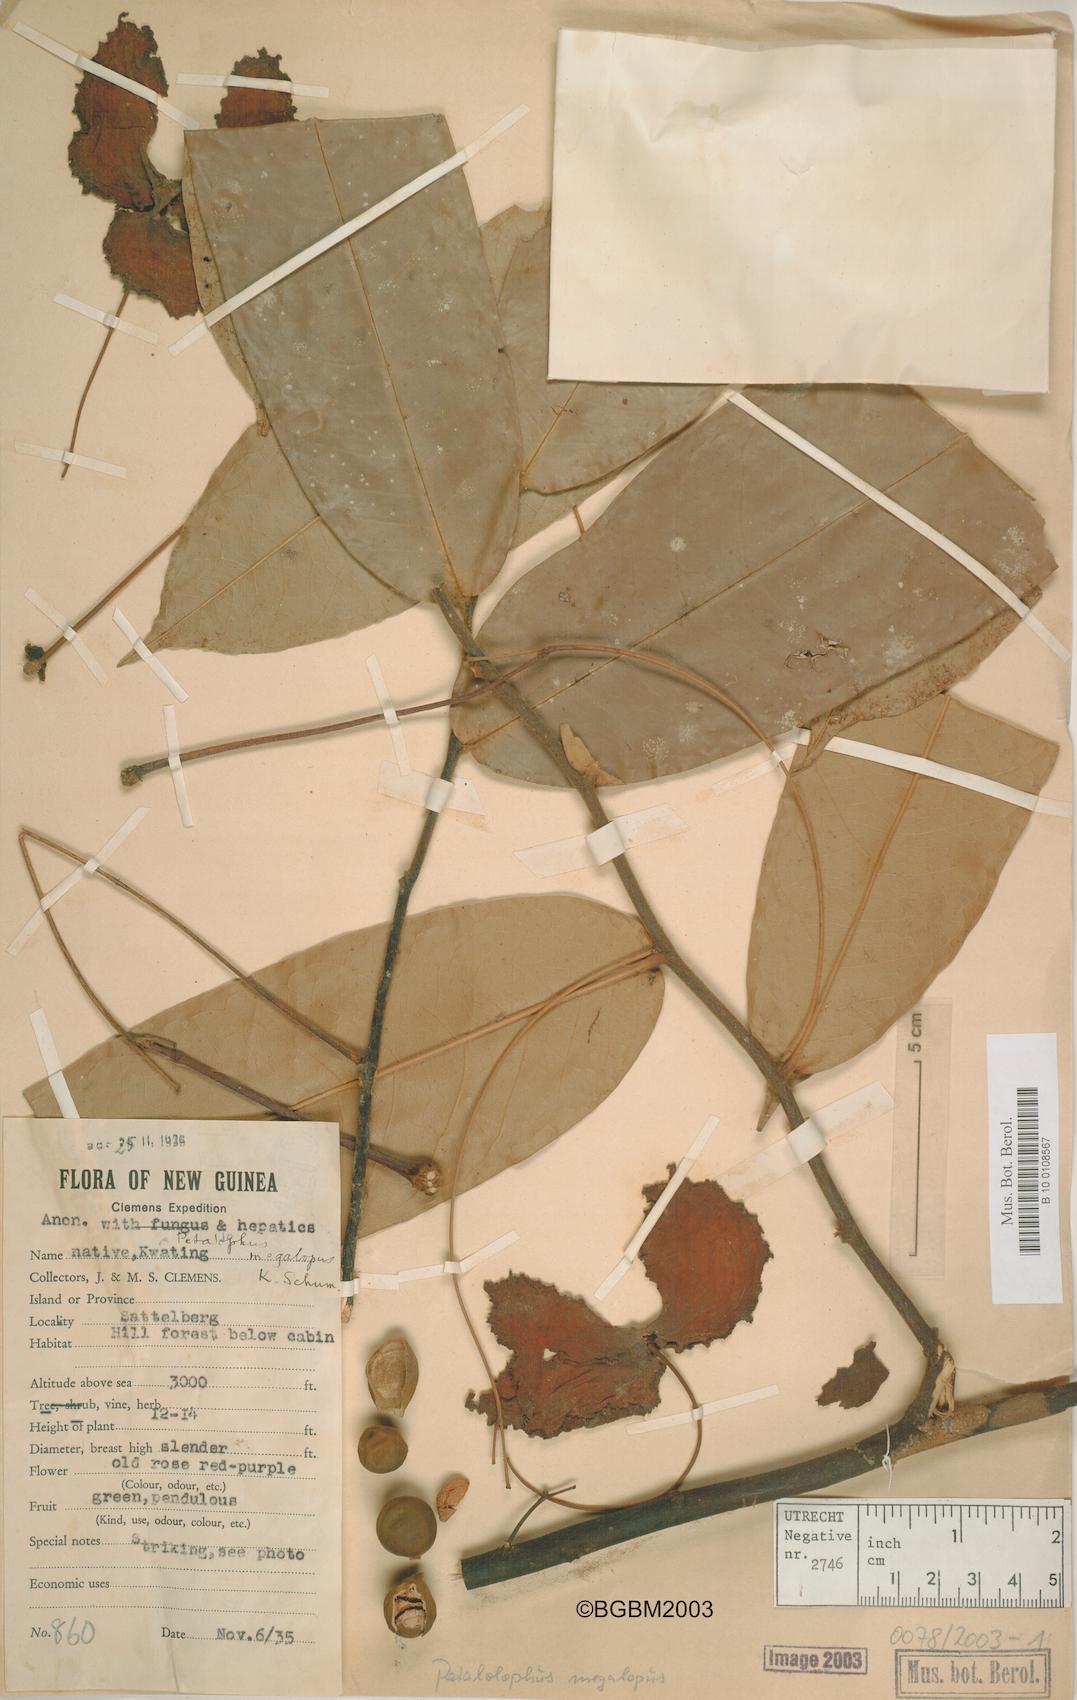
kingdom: Plantae
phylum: Tracheophyta
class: Magnoliopsida
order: Magnoliales
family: Annonaceae
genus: Pseuduvaria
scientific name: Pseuduvaria megalopus
